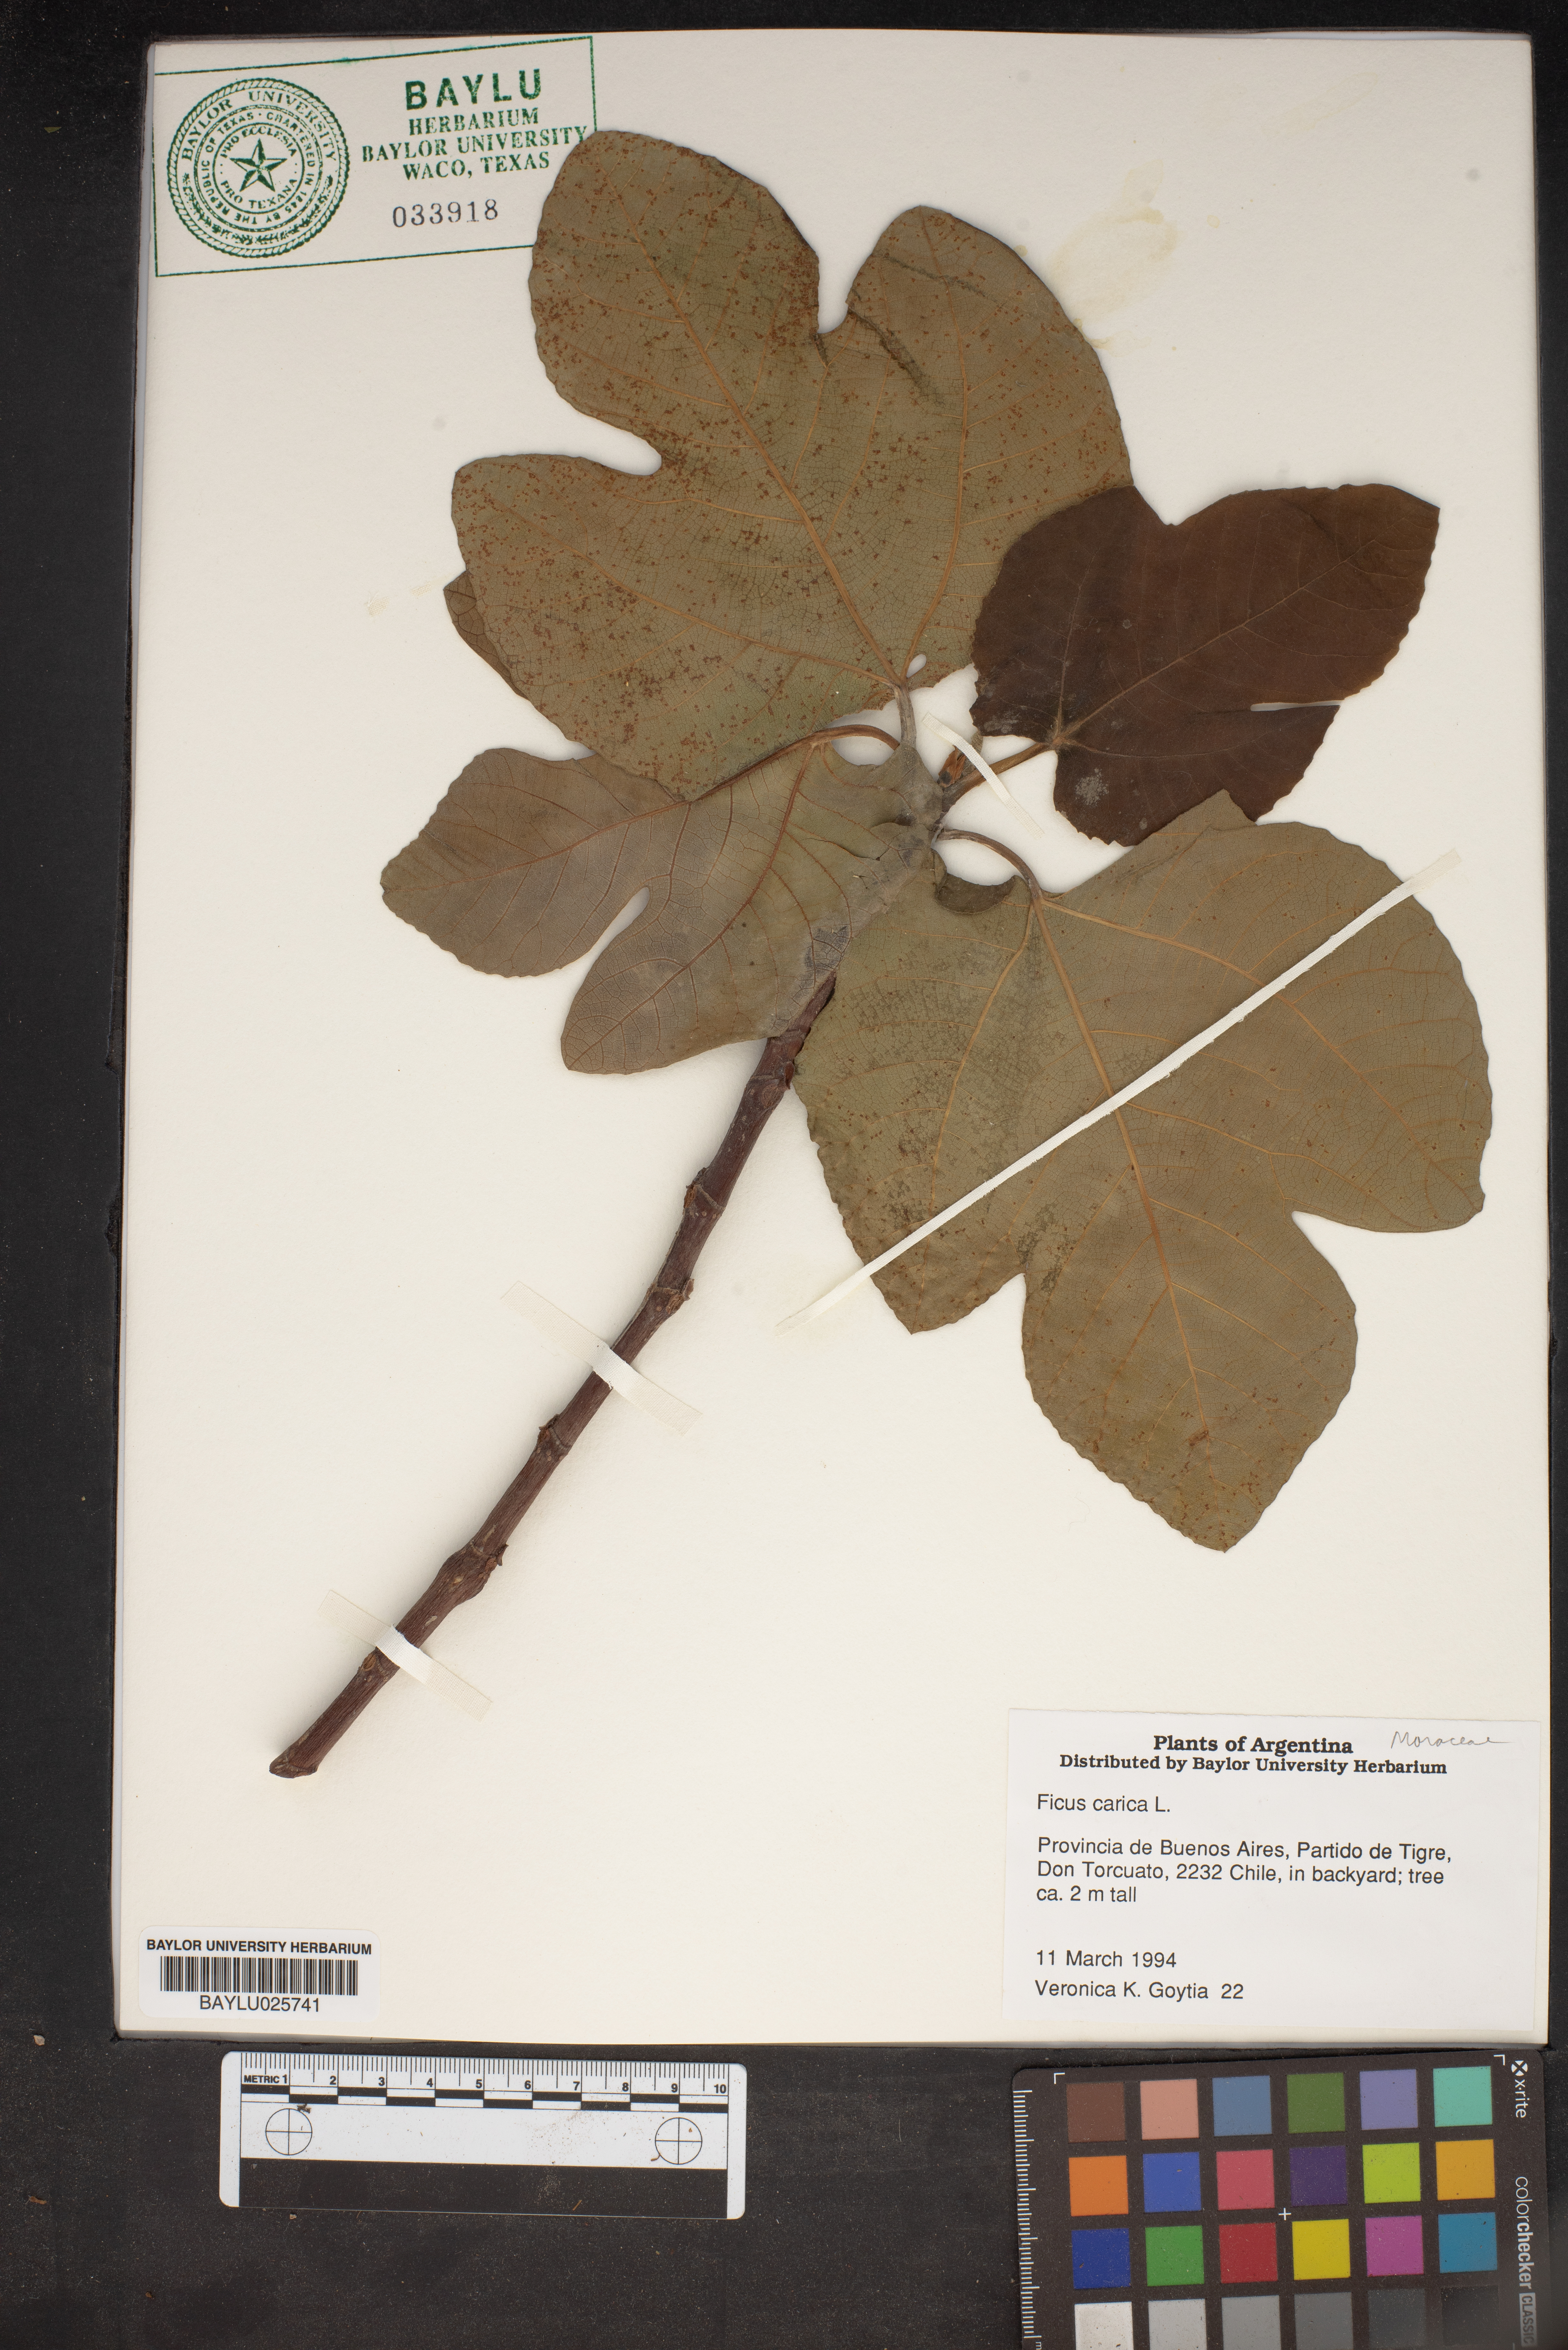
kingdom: Plantae
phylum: Tracheophyta
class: Magnoliopsida
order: Rosales
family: Moraceae
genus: Ficus
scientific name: Ficus carica
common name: Fig
